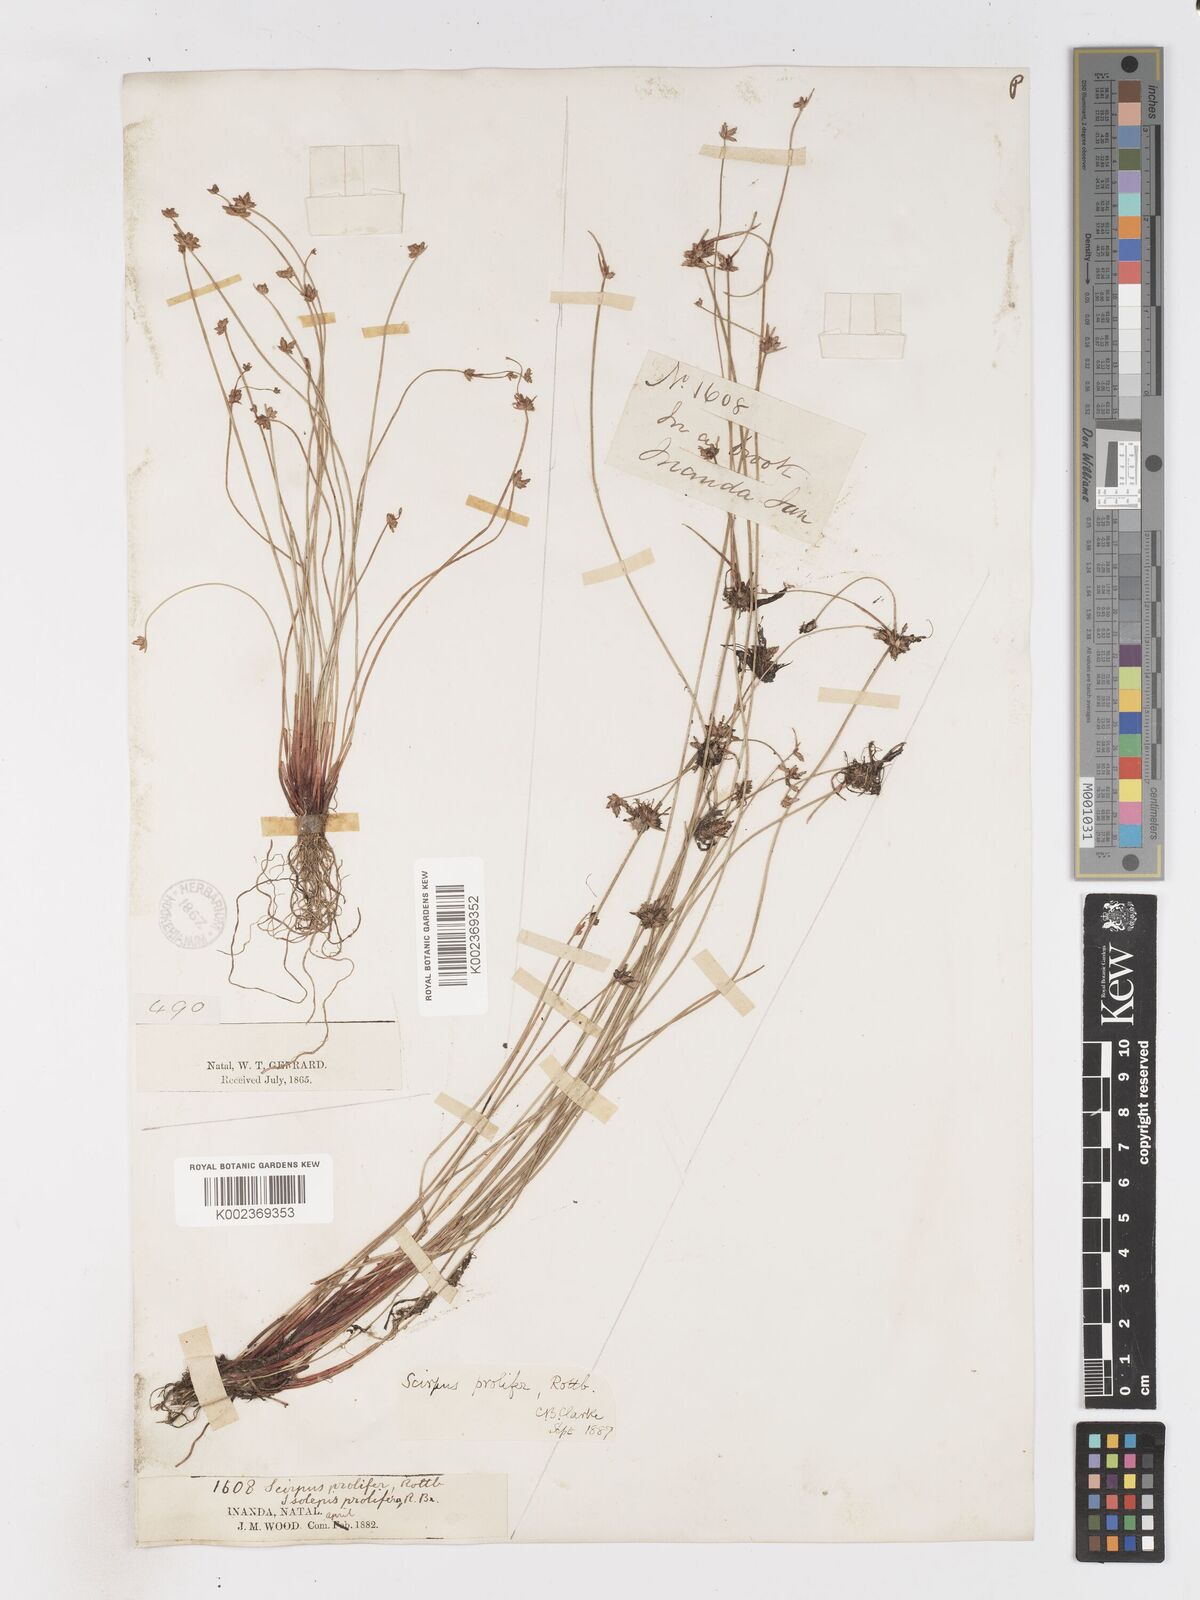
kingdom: Plantae
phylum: Tracheophyta
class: Liliopsida
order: Poales
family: Cyperaceae
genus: Isolepis
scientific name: Isolepis prolifera
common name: Proliferating bulrush
